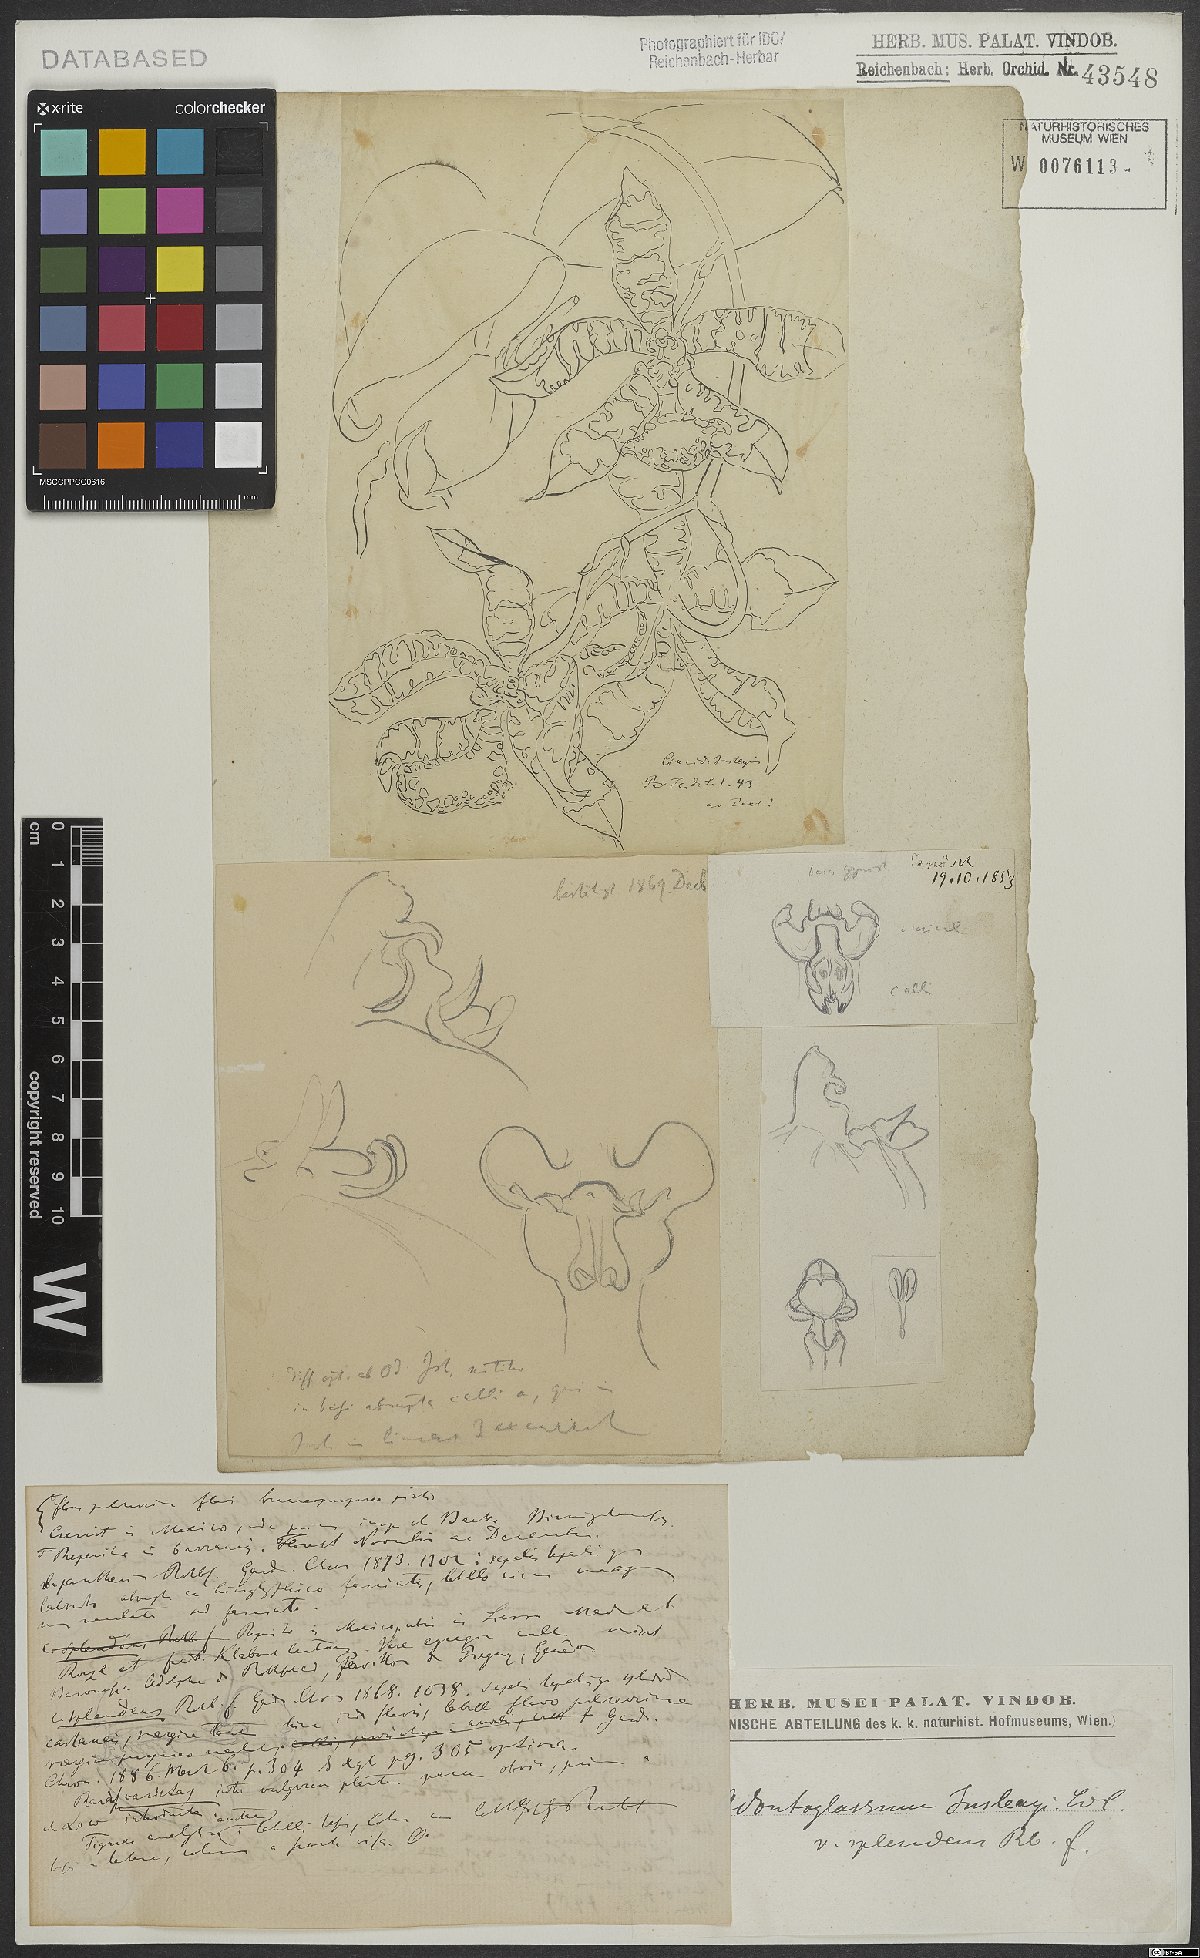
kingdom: Plantae
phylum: Tracheophyta
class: Liliopsida
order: Asparagales
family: Orchidaceae
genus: Rossioglossum
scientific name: Rossioglossum splendens
